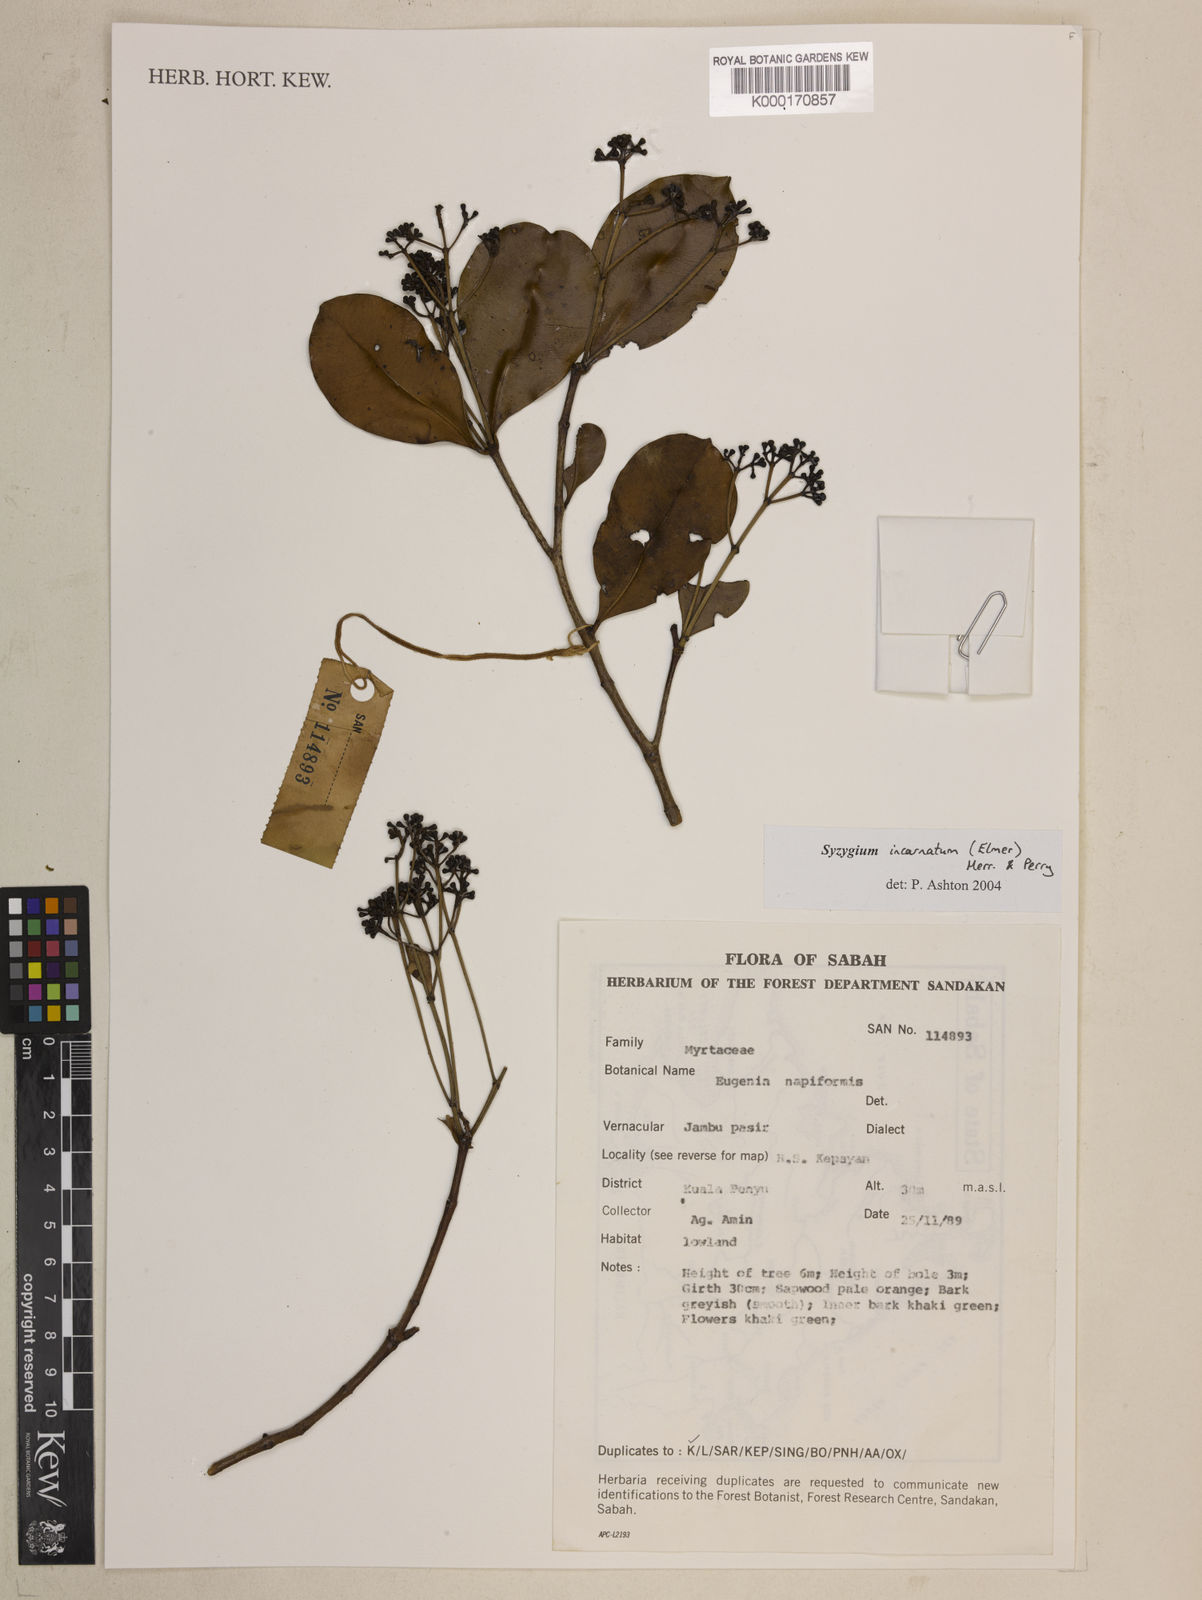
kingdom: Plantae
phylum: Tracheophyta
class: Magnoliopsida
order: Myrtales
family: Myrtaceae
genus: Syzygium
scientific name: Syzygium incarnatum
